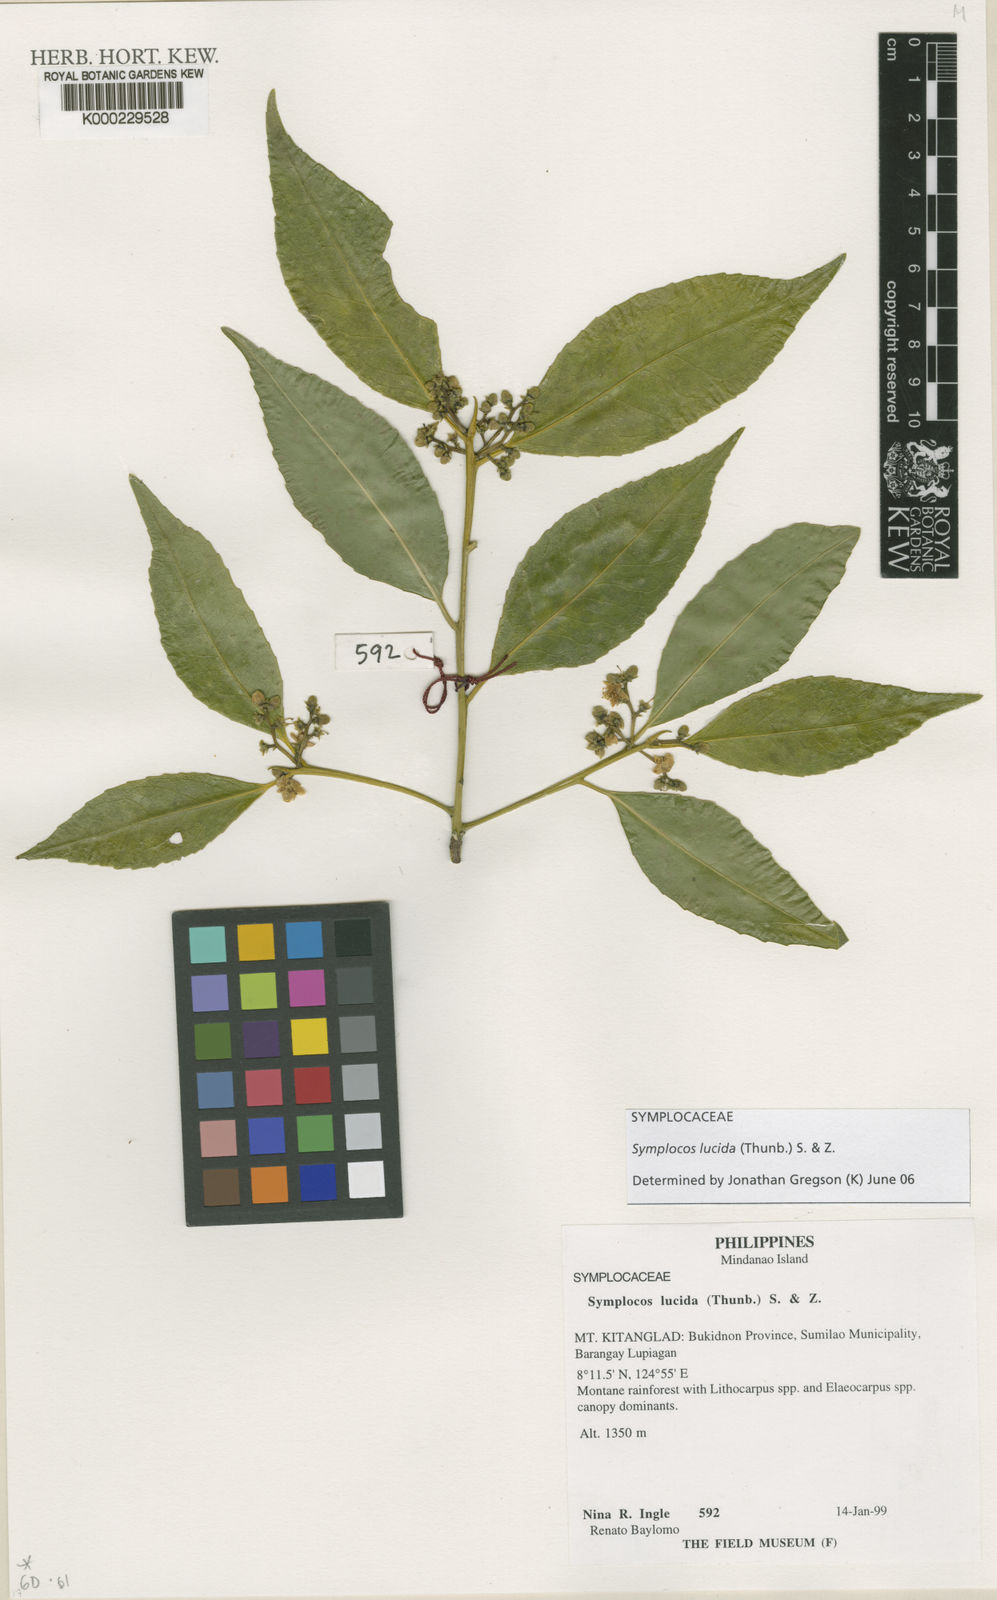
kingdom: Plantae
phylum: Tracheophyta
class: Magnoliopsida
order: Ericales
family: Symplocaceae
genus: Symplocos
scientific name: Symplocos
